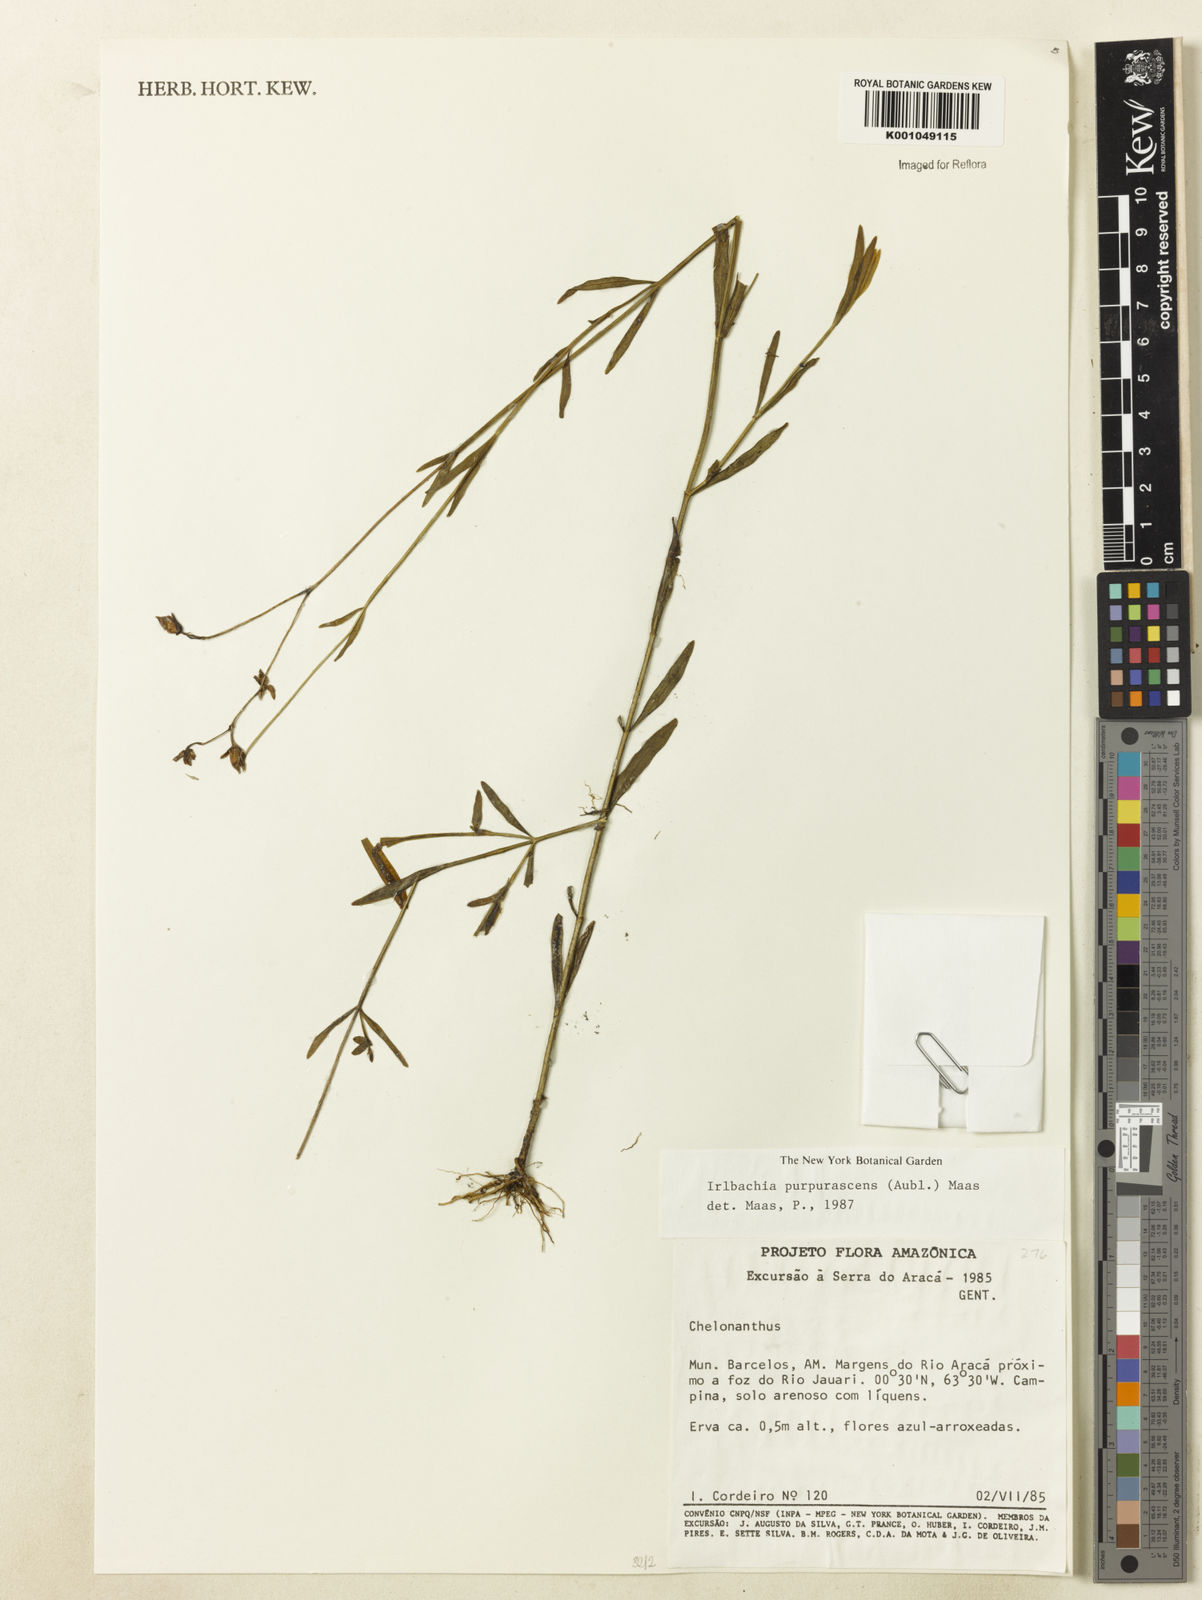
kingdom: Plantae
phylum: Tracheophyta
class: Magnoliopsida
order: Gentianales
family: Gentianaceae
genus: Chelonanthus
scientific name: Chelonanthus purpurascens
